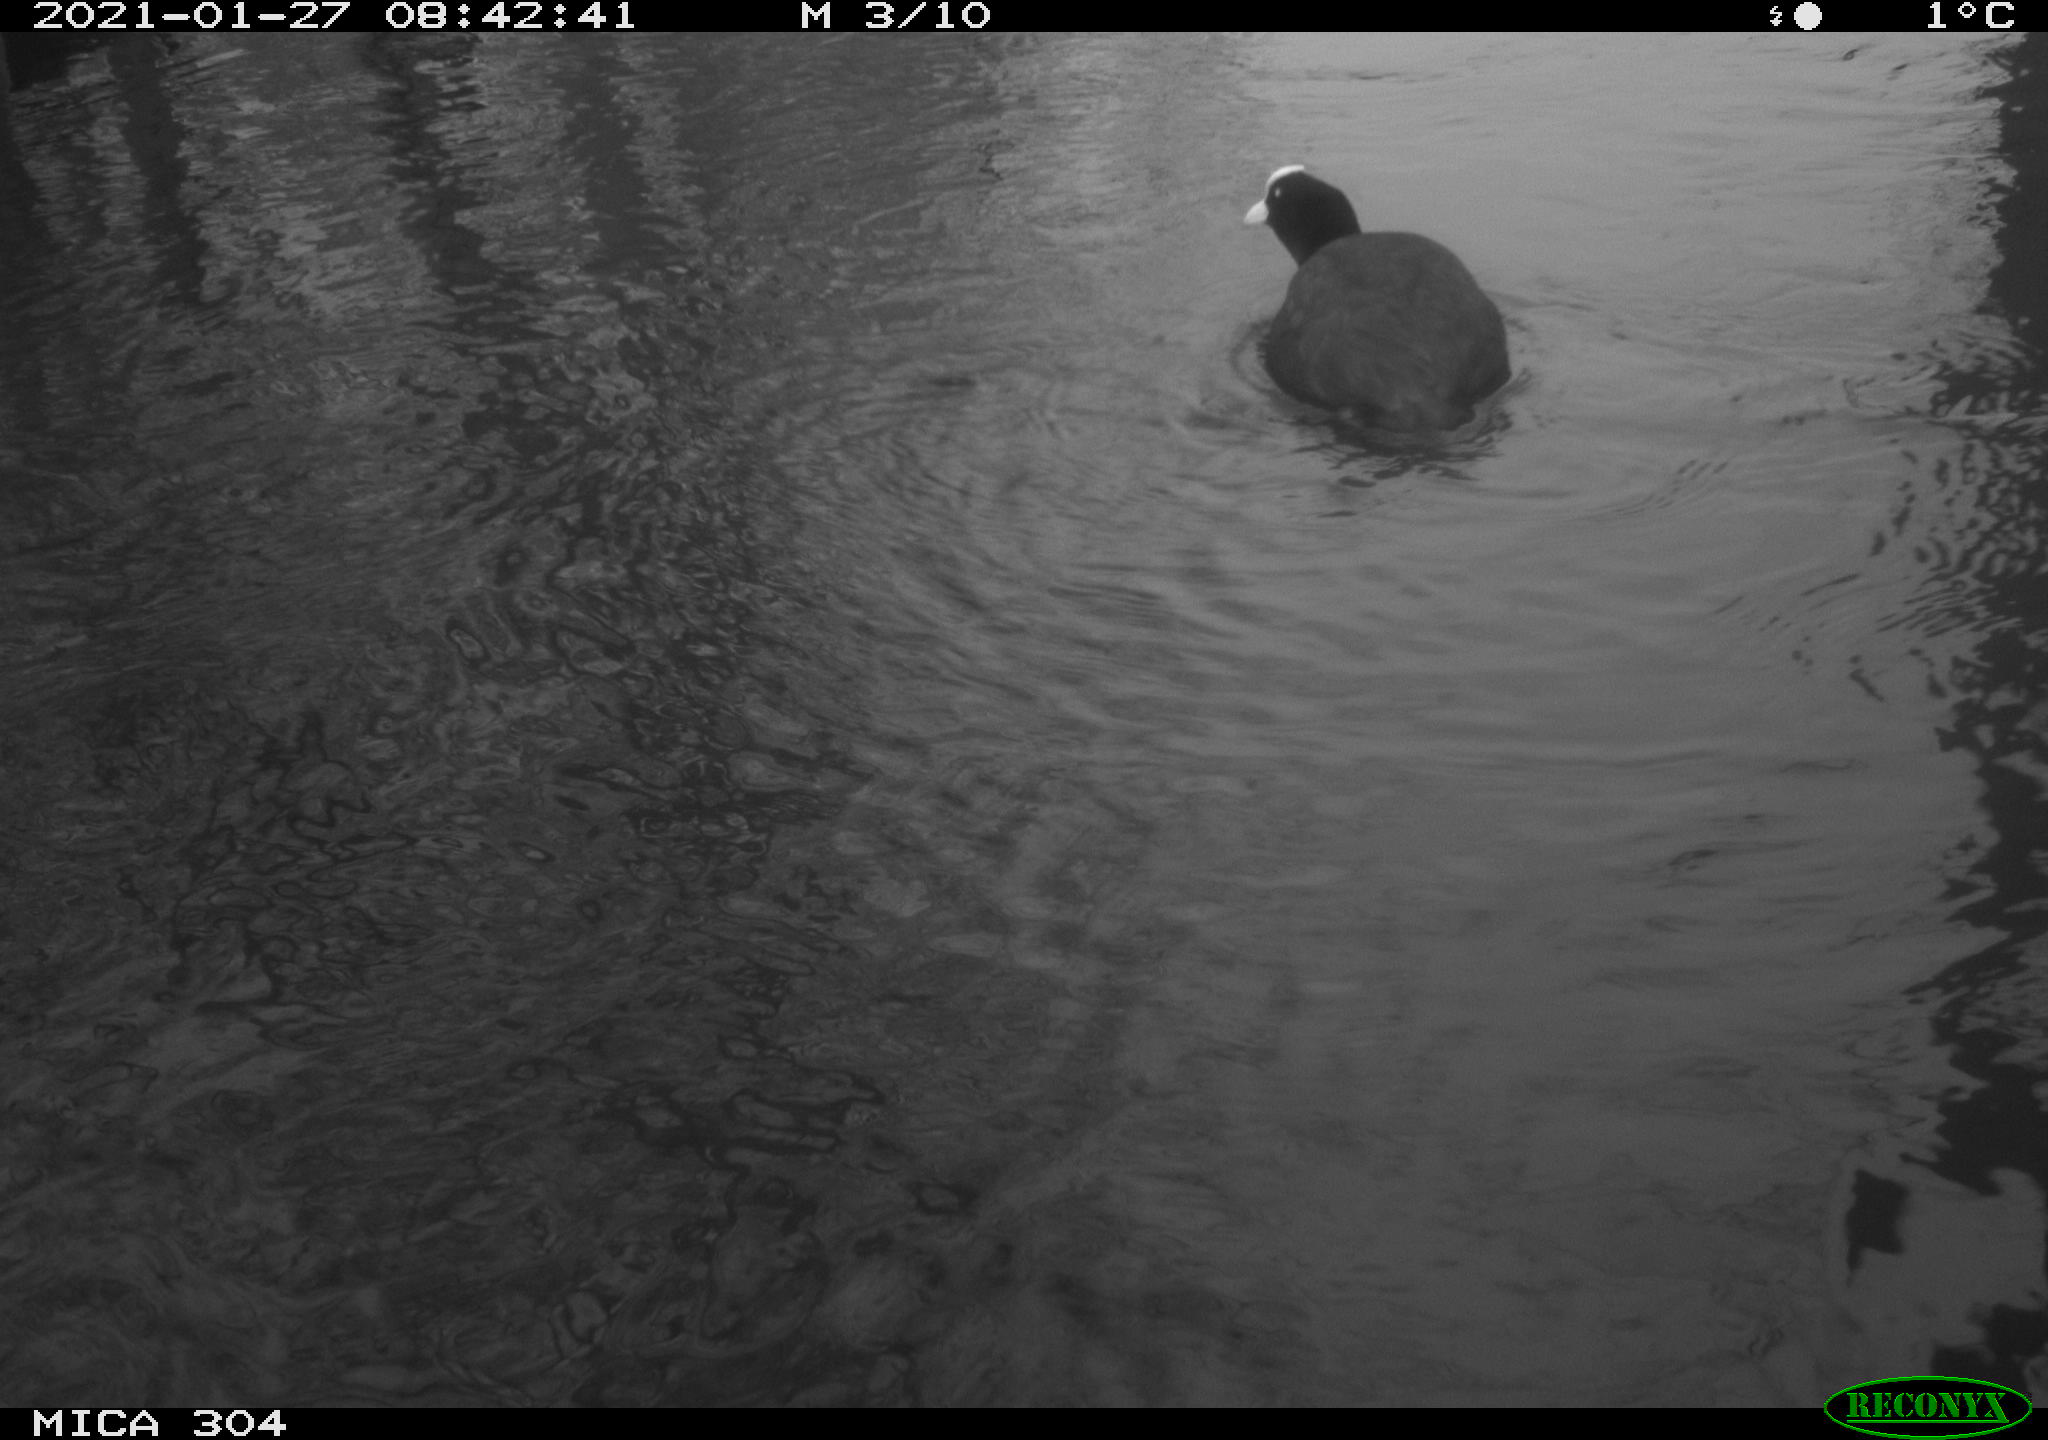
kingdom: Animalia
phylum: Chordata
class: Aves
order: Gruiformes
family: Rallidae
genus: Fulica
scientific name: Fulica atra
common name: Eurasian coot
